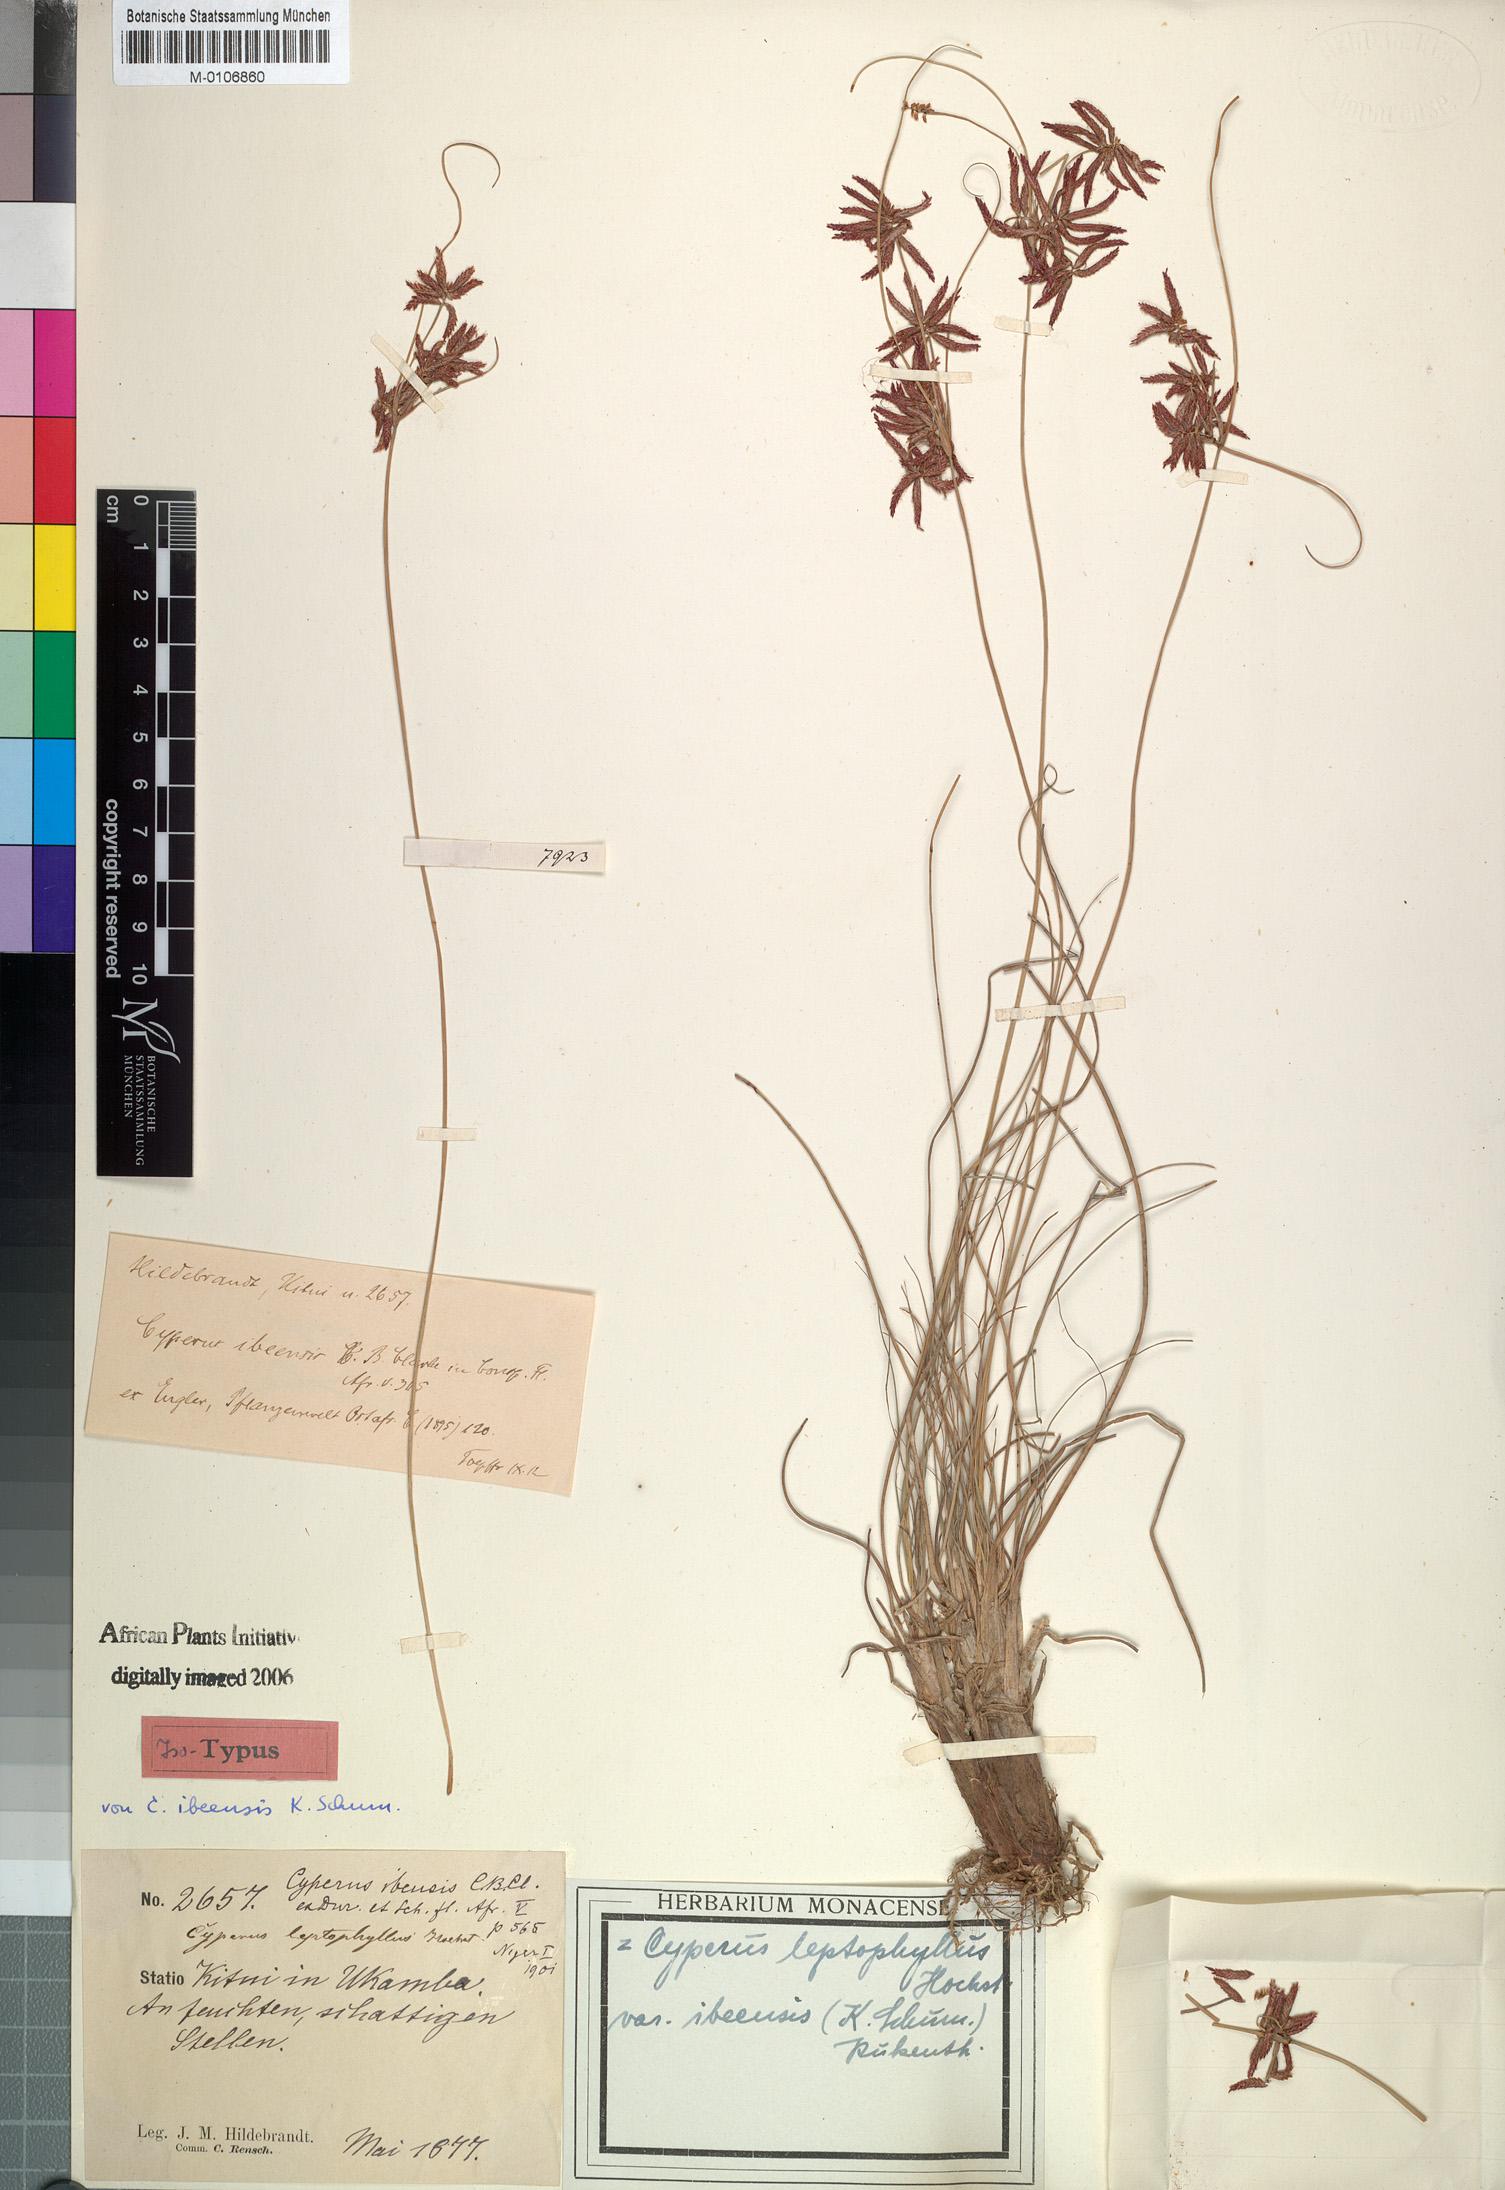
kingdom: Plantae
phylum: Tracheophyta
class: Liliopsida
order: Poales
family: Cyperaceae
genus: Cyperus
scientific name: Cyperus amauropus
